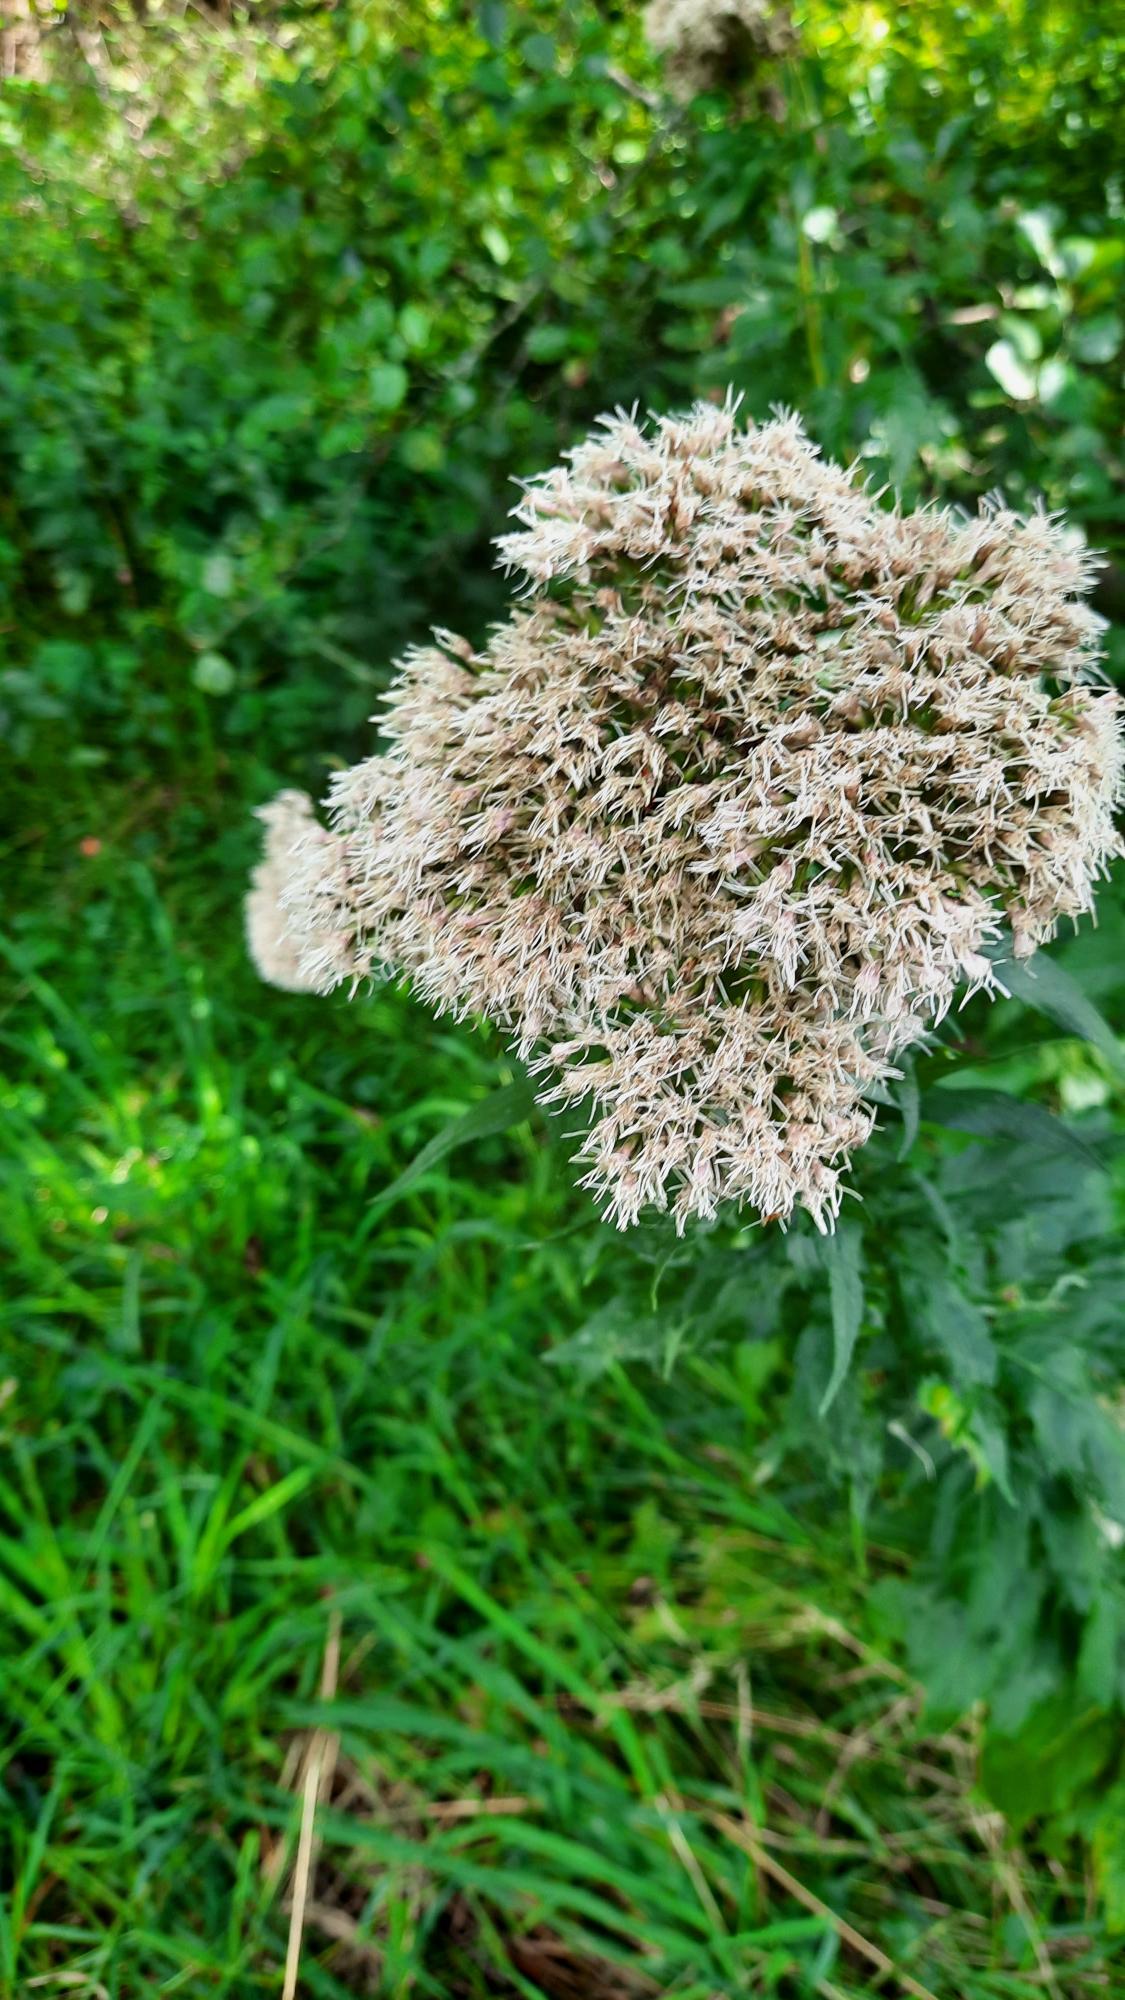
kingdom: Plantae
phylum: Tracheophyta
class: Magnoliopsida
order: Asterales
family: Asteraceae
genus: Eupatorium
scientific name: Eupatorium cannabinum
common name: Hjortetrøst
